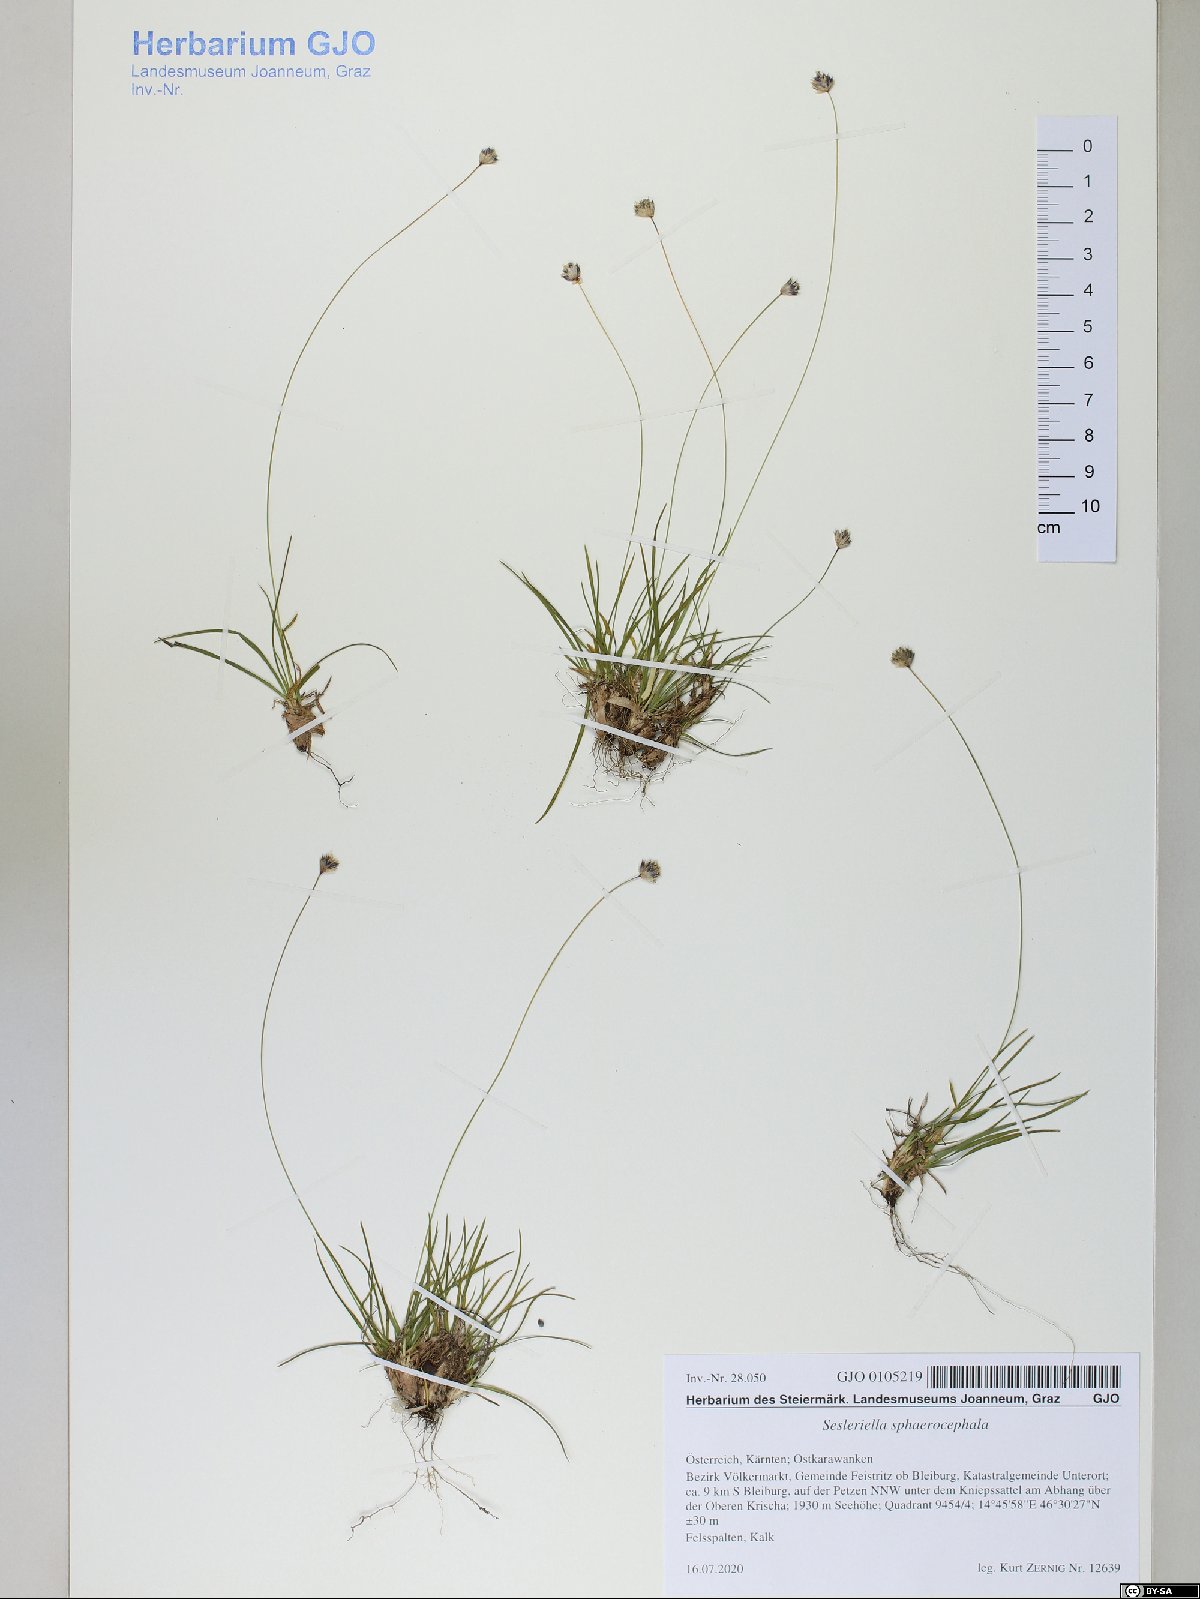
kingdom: Plantae
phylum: Tracheophyta
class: Liliopsida
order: Poales
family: Poaceae
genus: Sesleriella
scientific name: Sesleriella sphaerocephala
